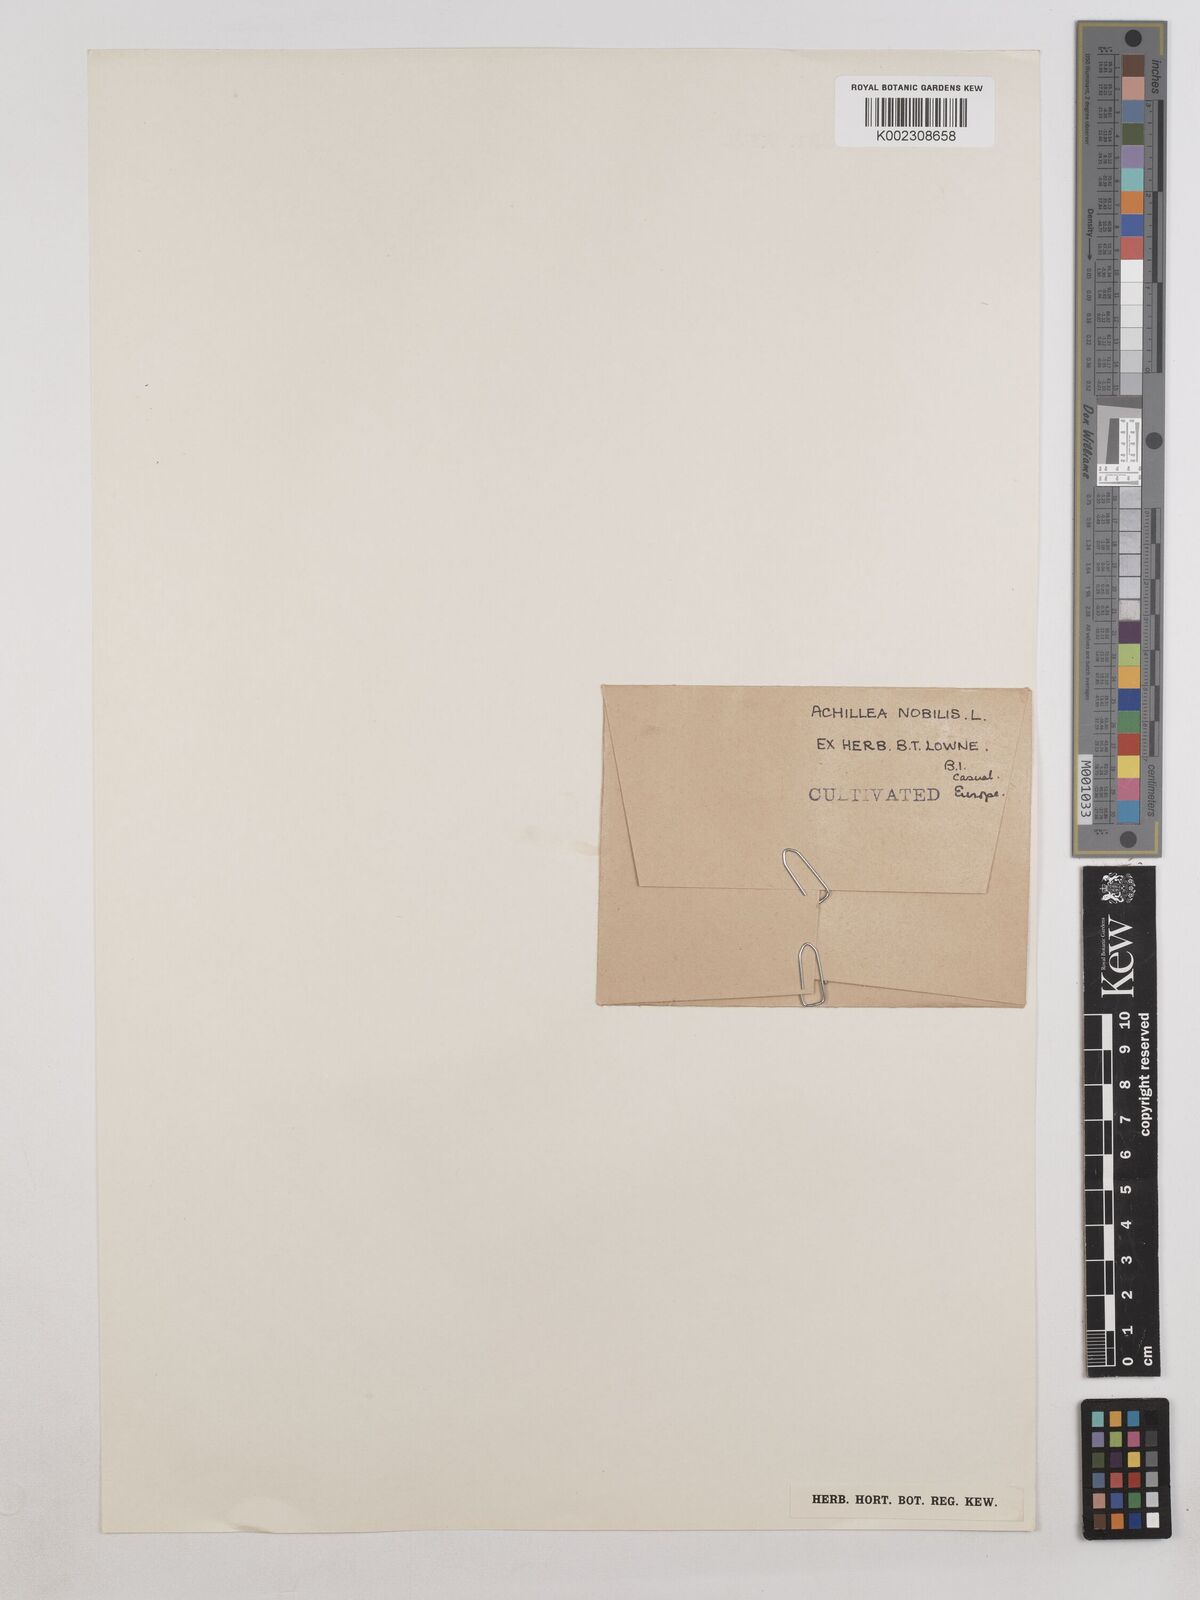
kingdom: Plantae
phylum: Tracheophyta
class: Magnoliopsida
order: Asterales
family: Asteraceae
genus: Achillea
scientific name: Achillea nobilis
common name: Noble yarrow
